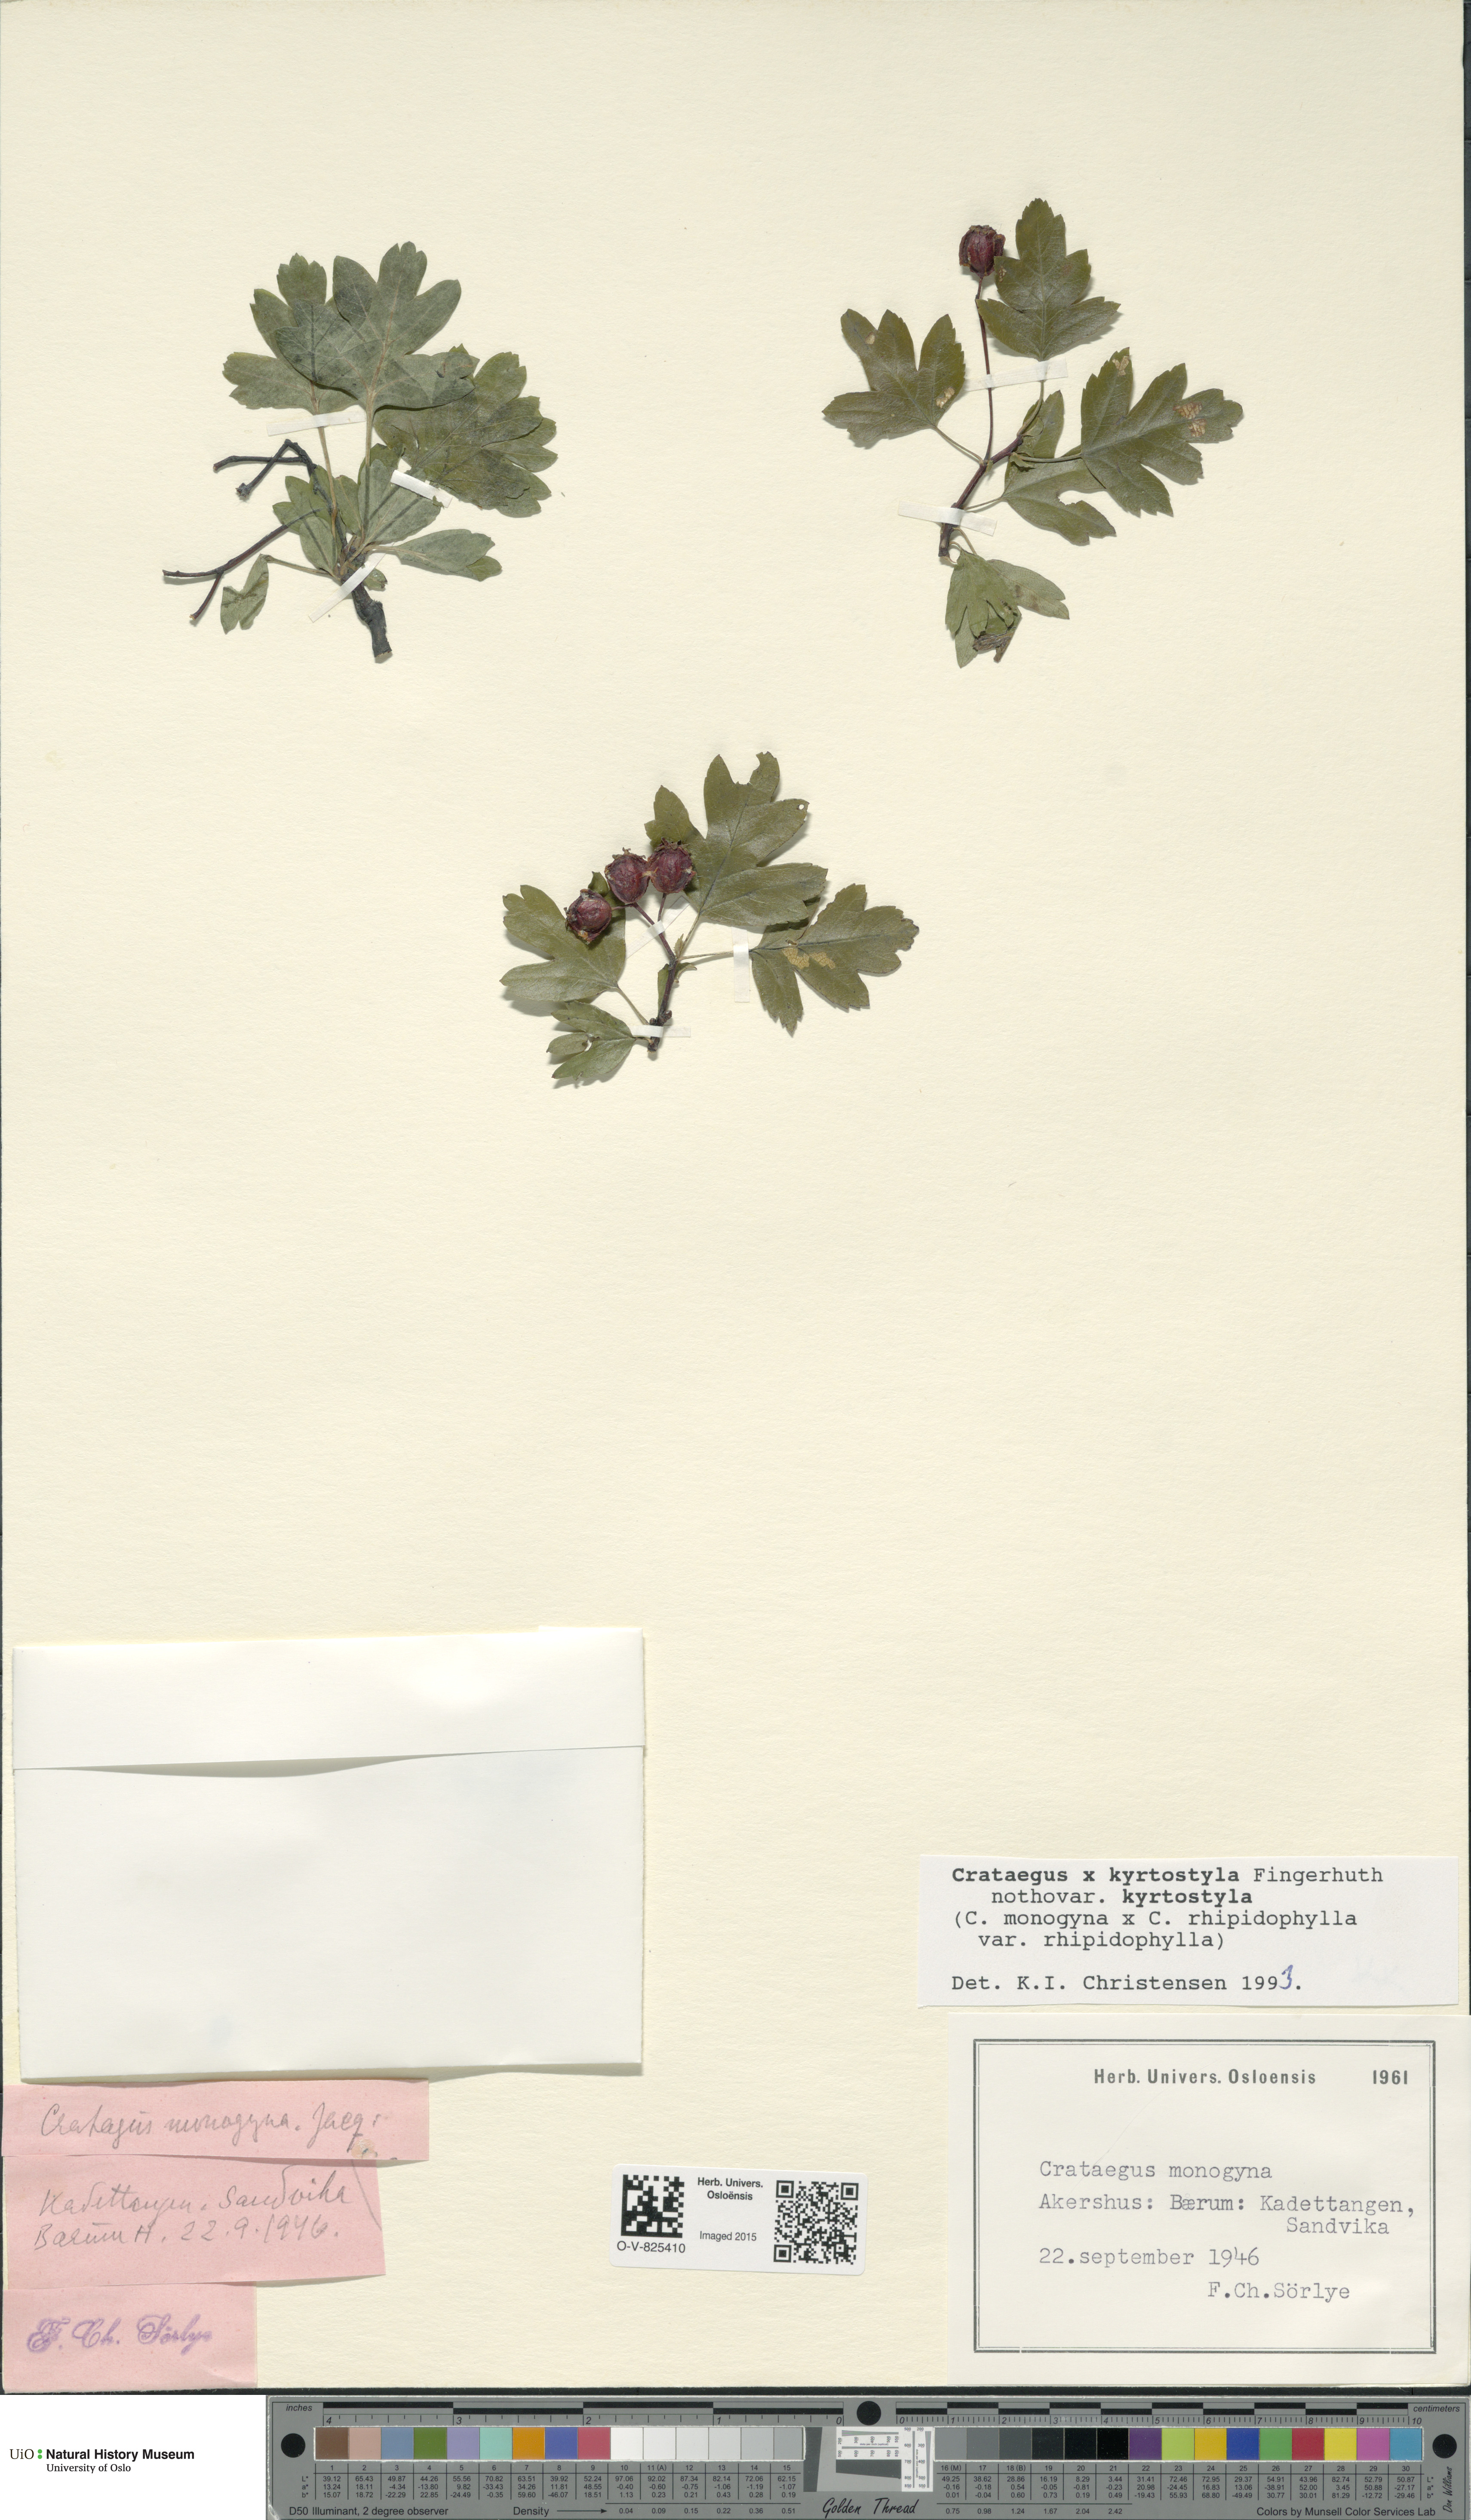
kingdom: Plantae
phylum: Tracheophyta
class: Magnoliopsida
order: Rosales
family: Rosaceae
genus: Crataegus
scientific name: Crataegus kyrtostyla
